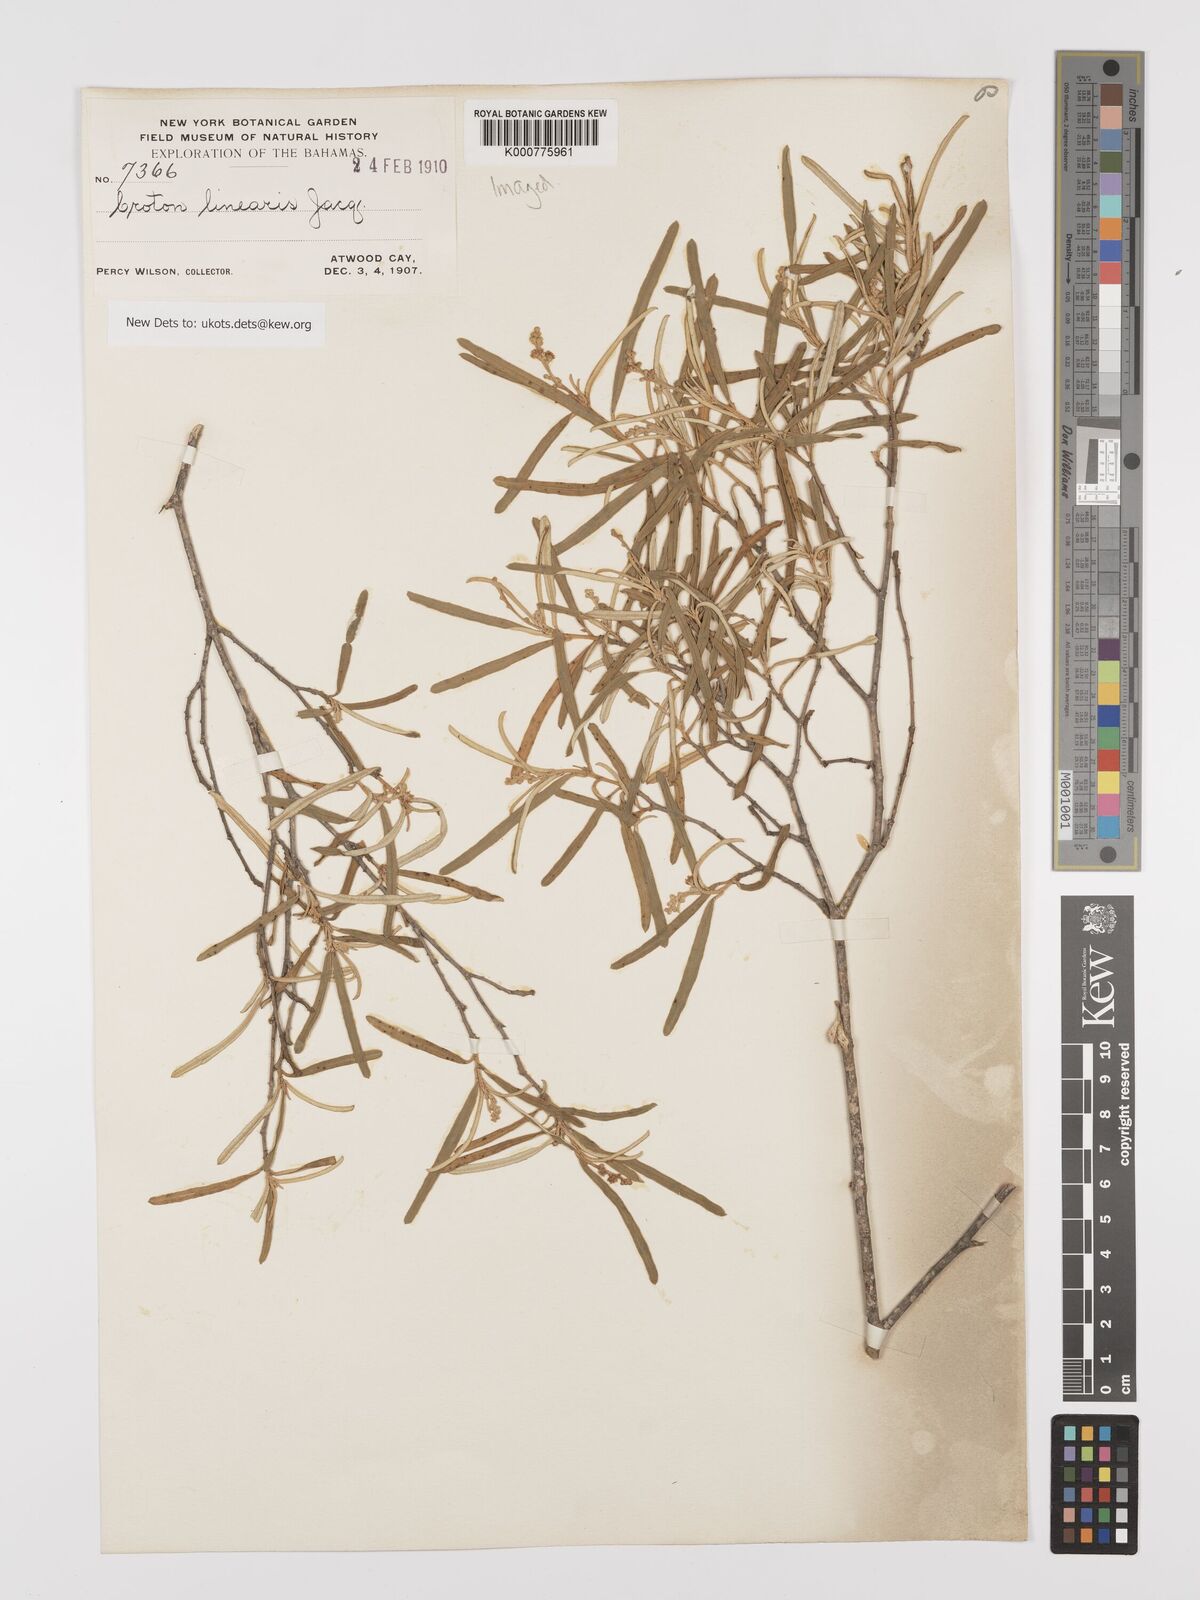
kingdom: Plantae
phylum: Tracheophyta
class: Magnoliopsida
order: Malpighiales
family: Euphorbiaceae
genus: Croton
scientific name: Croton linearis
